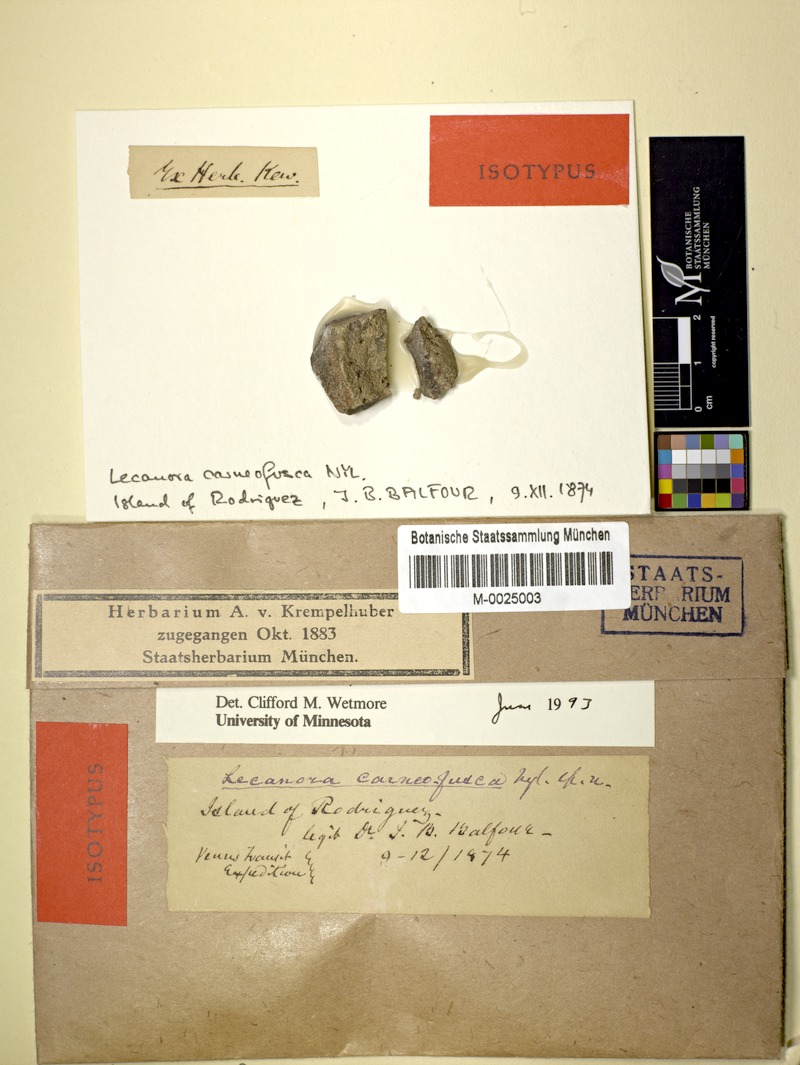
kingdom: Fungi
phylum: Ascomycota
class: Lecanoromycetes
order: Teloschistales
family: Teloschistaceae
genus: Sucioplaca
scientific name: Sucioplaca diplacia
